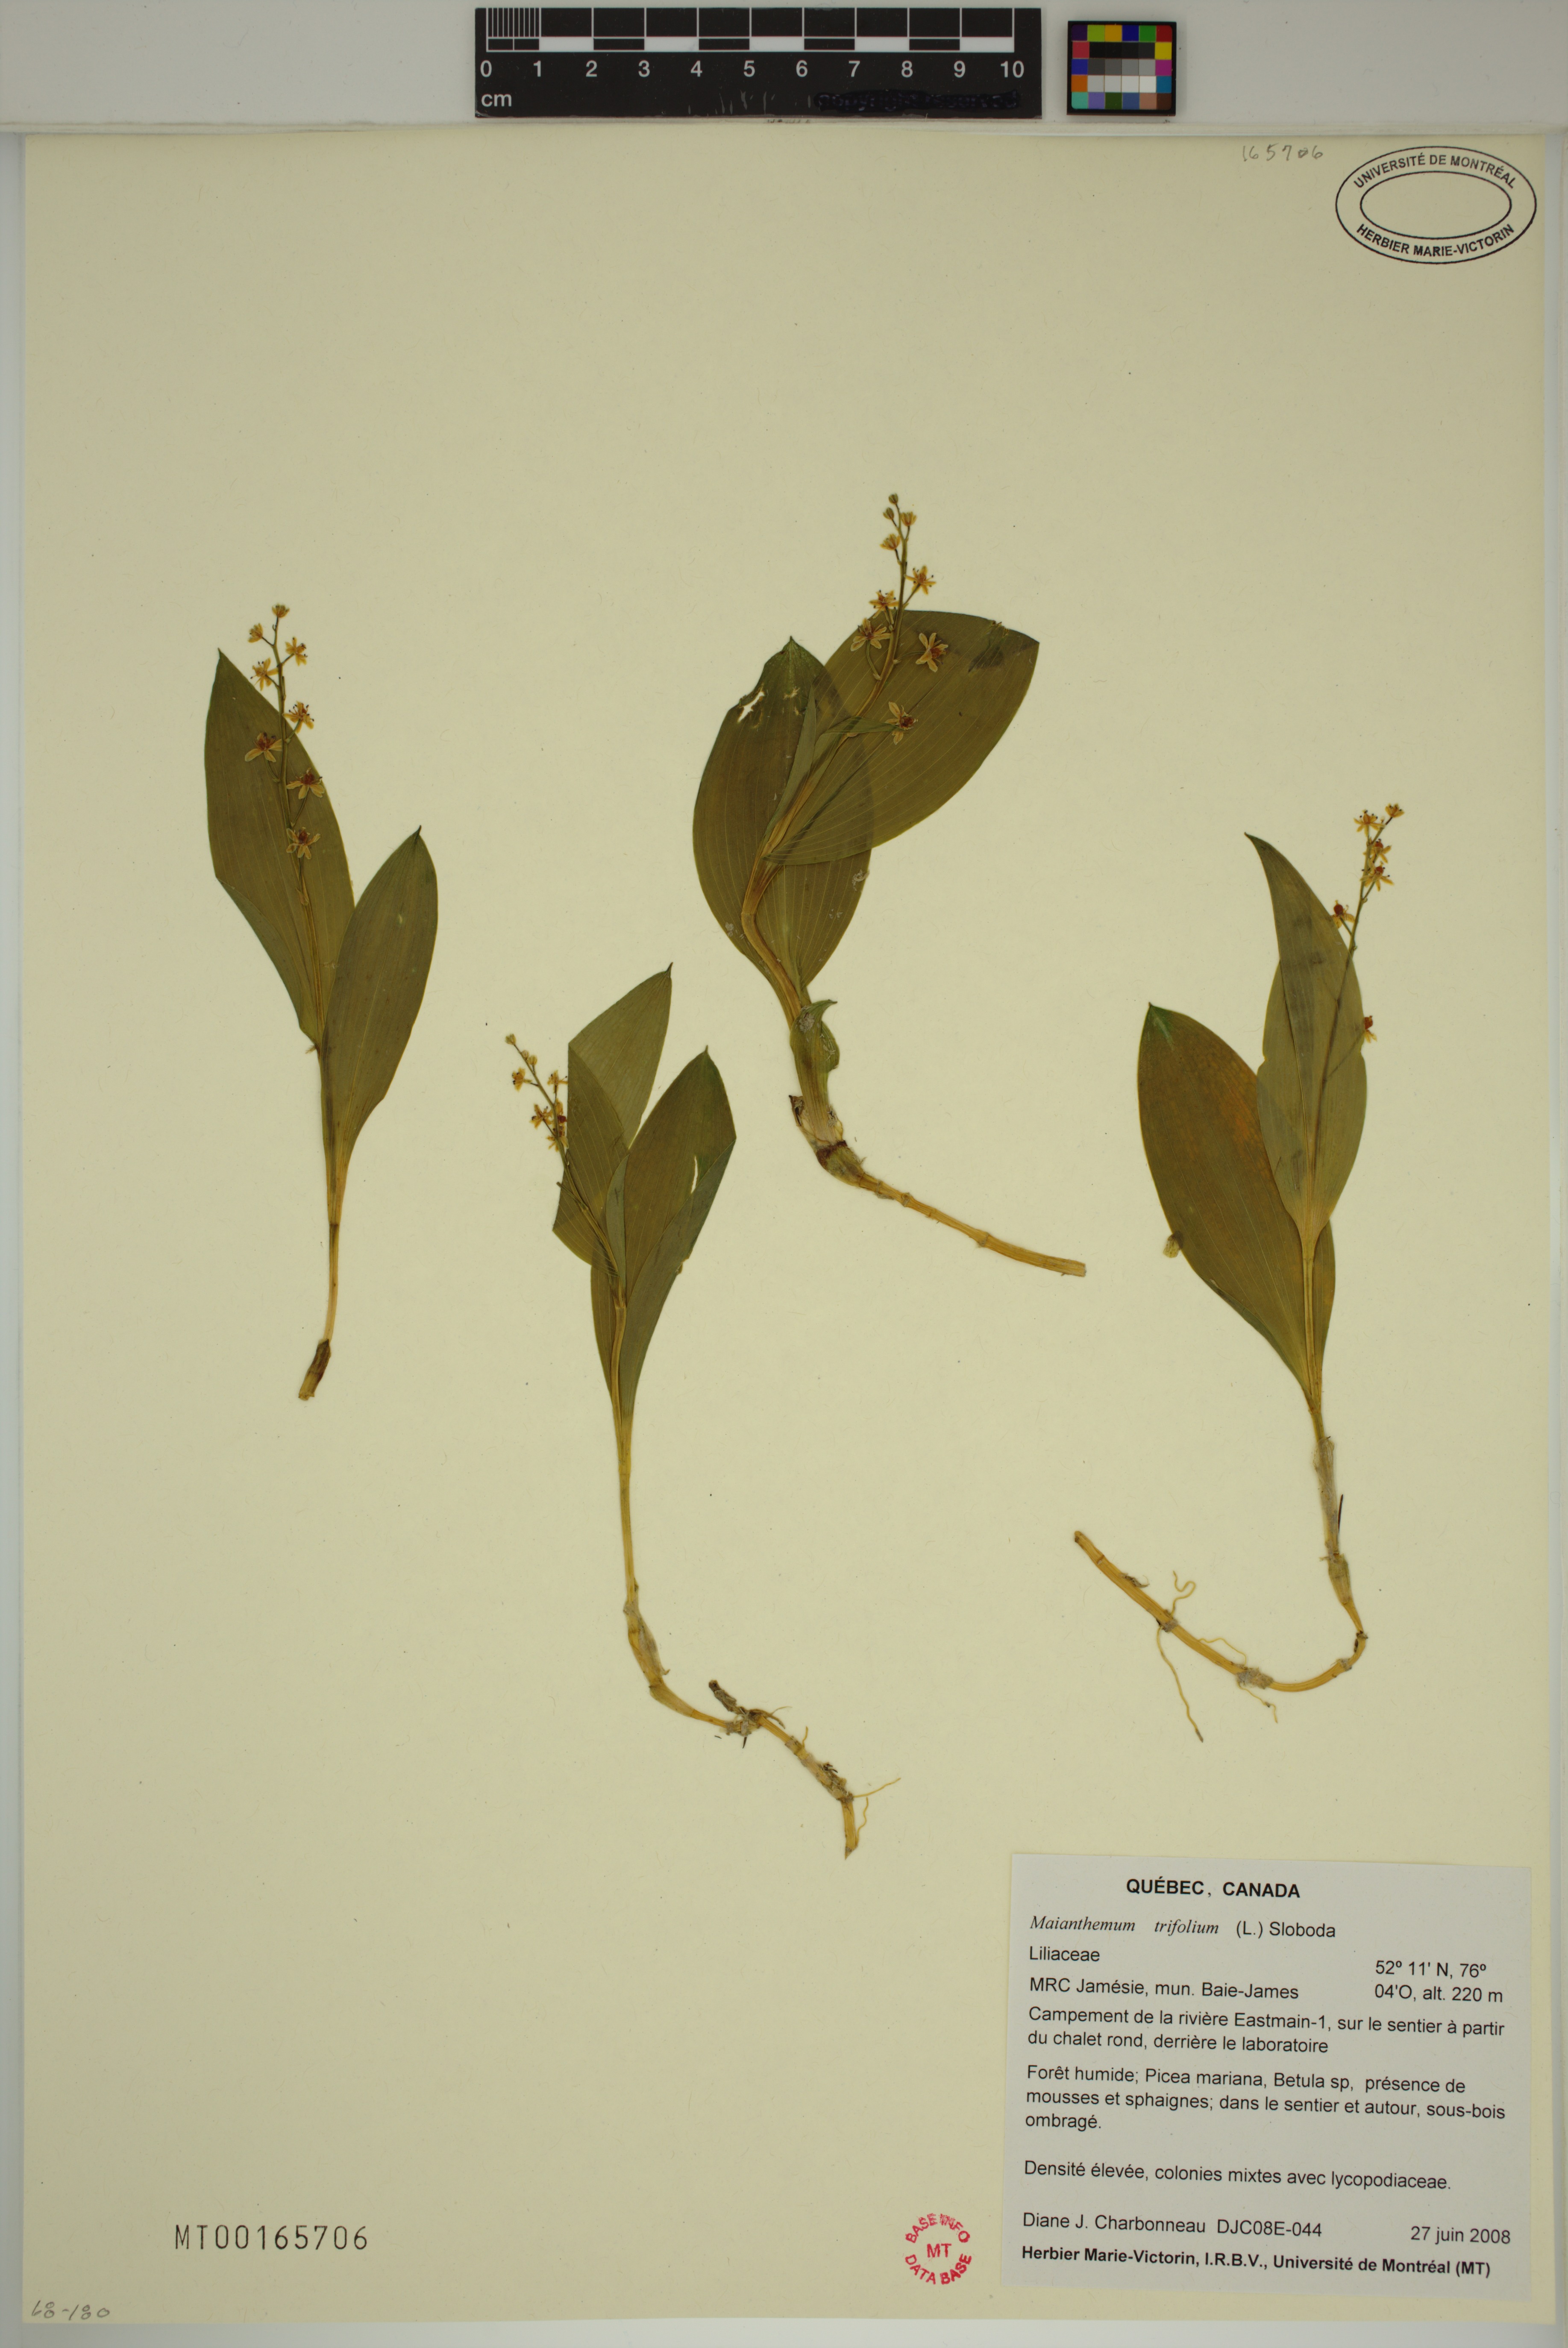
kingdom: Plantae
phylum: Tracheophyta
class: Liliopsida
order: Asparagales
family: Asparagaceae
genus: Maianthemum
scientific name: Maianthemum trifolium
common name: Swamp false solomon's seal
